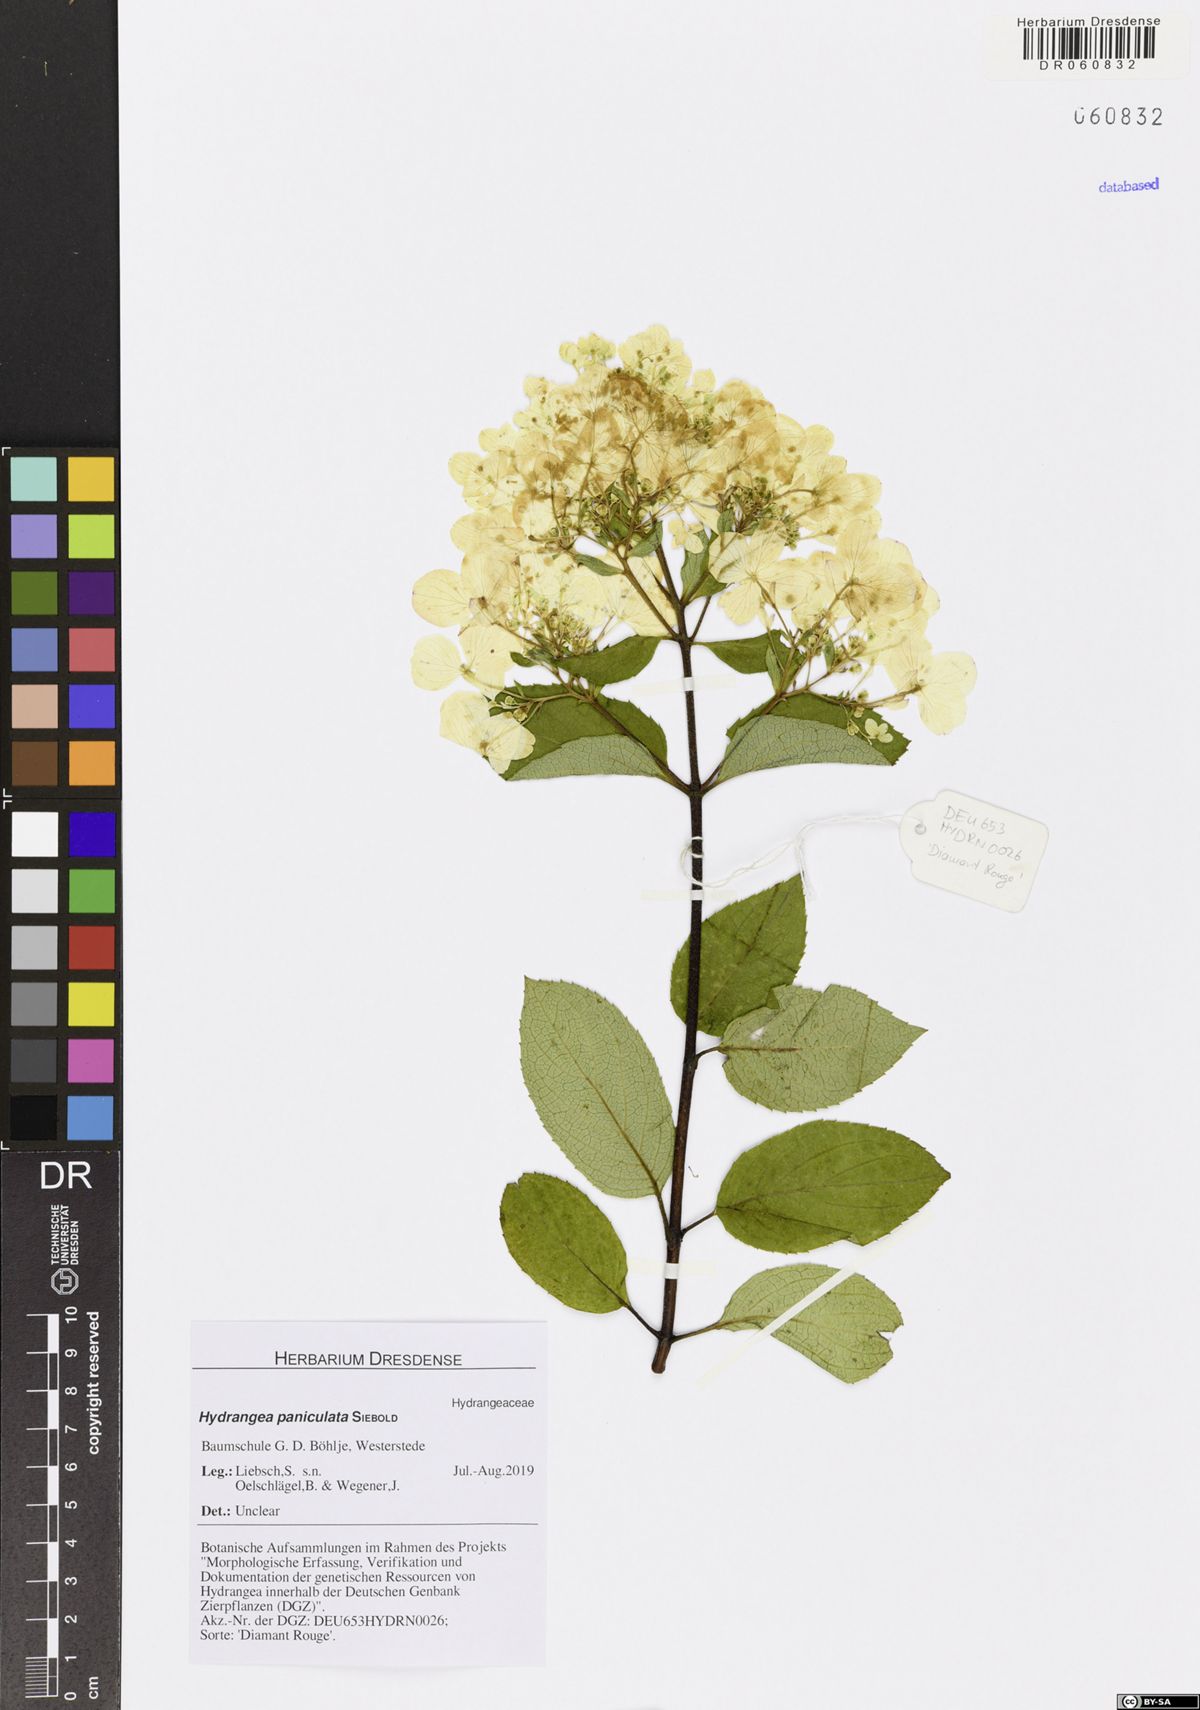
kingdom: Plantae
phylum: Tracheophyta
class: Magnoliopsida
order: Cornales
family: Hydrangeaceae
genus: Hydrangea
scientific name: Hydrangea paniculata
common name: Panicled hydrangea
